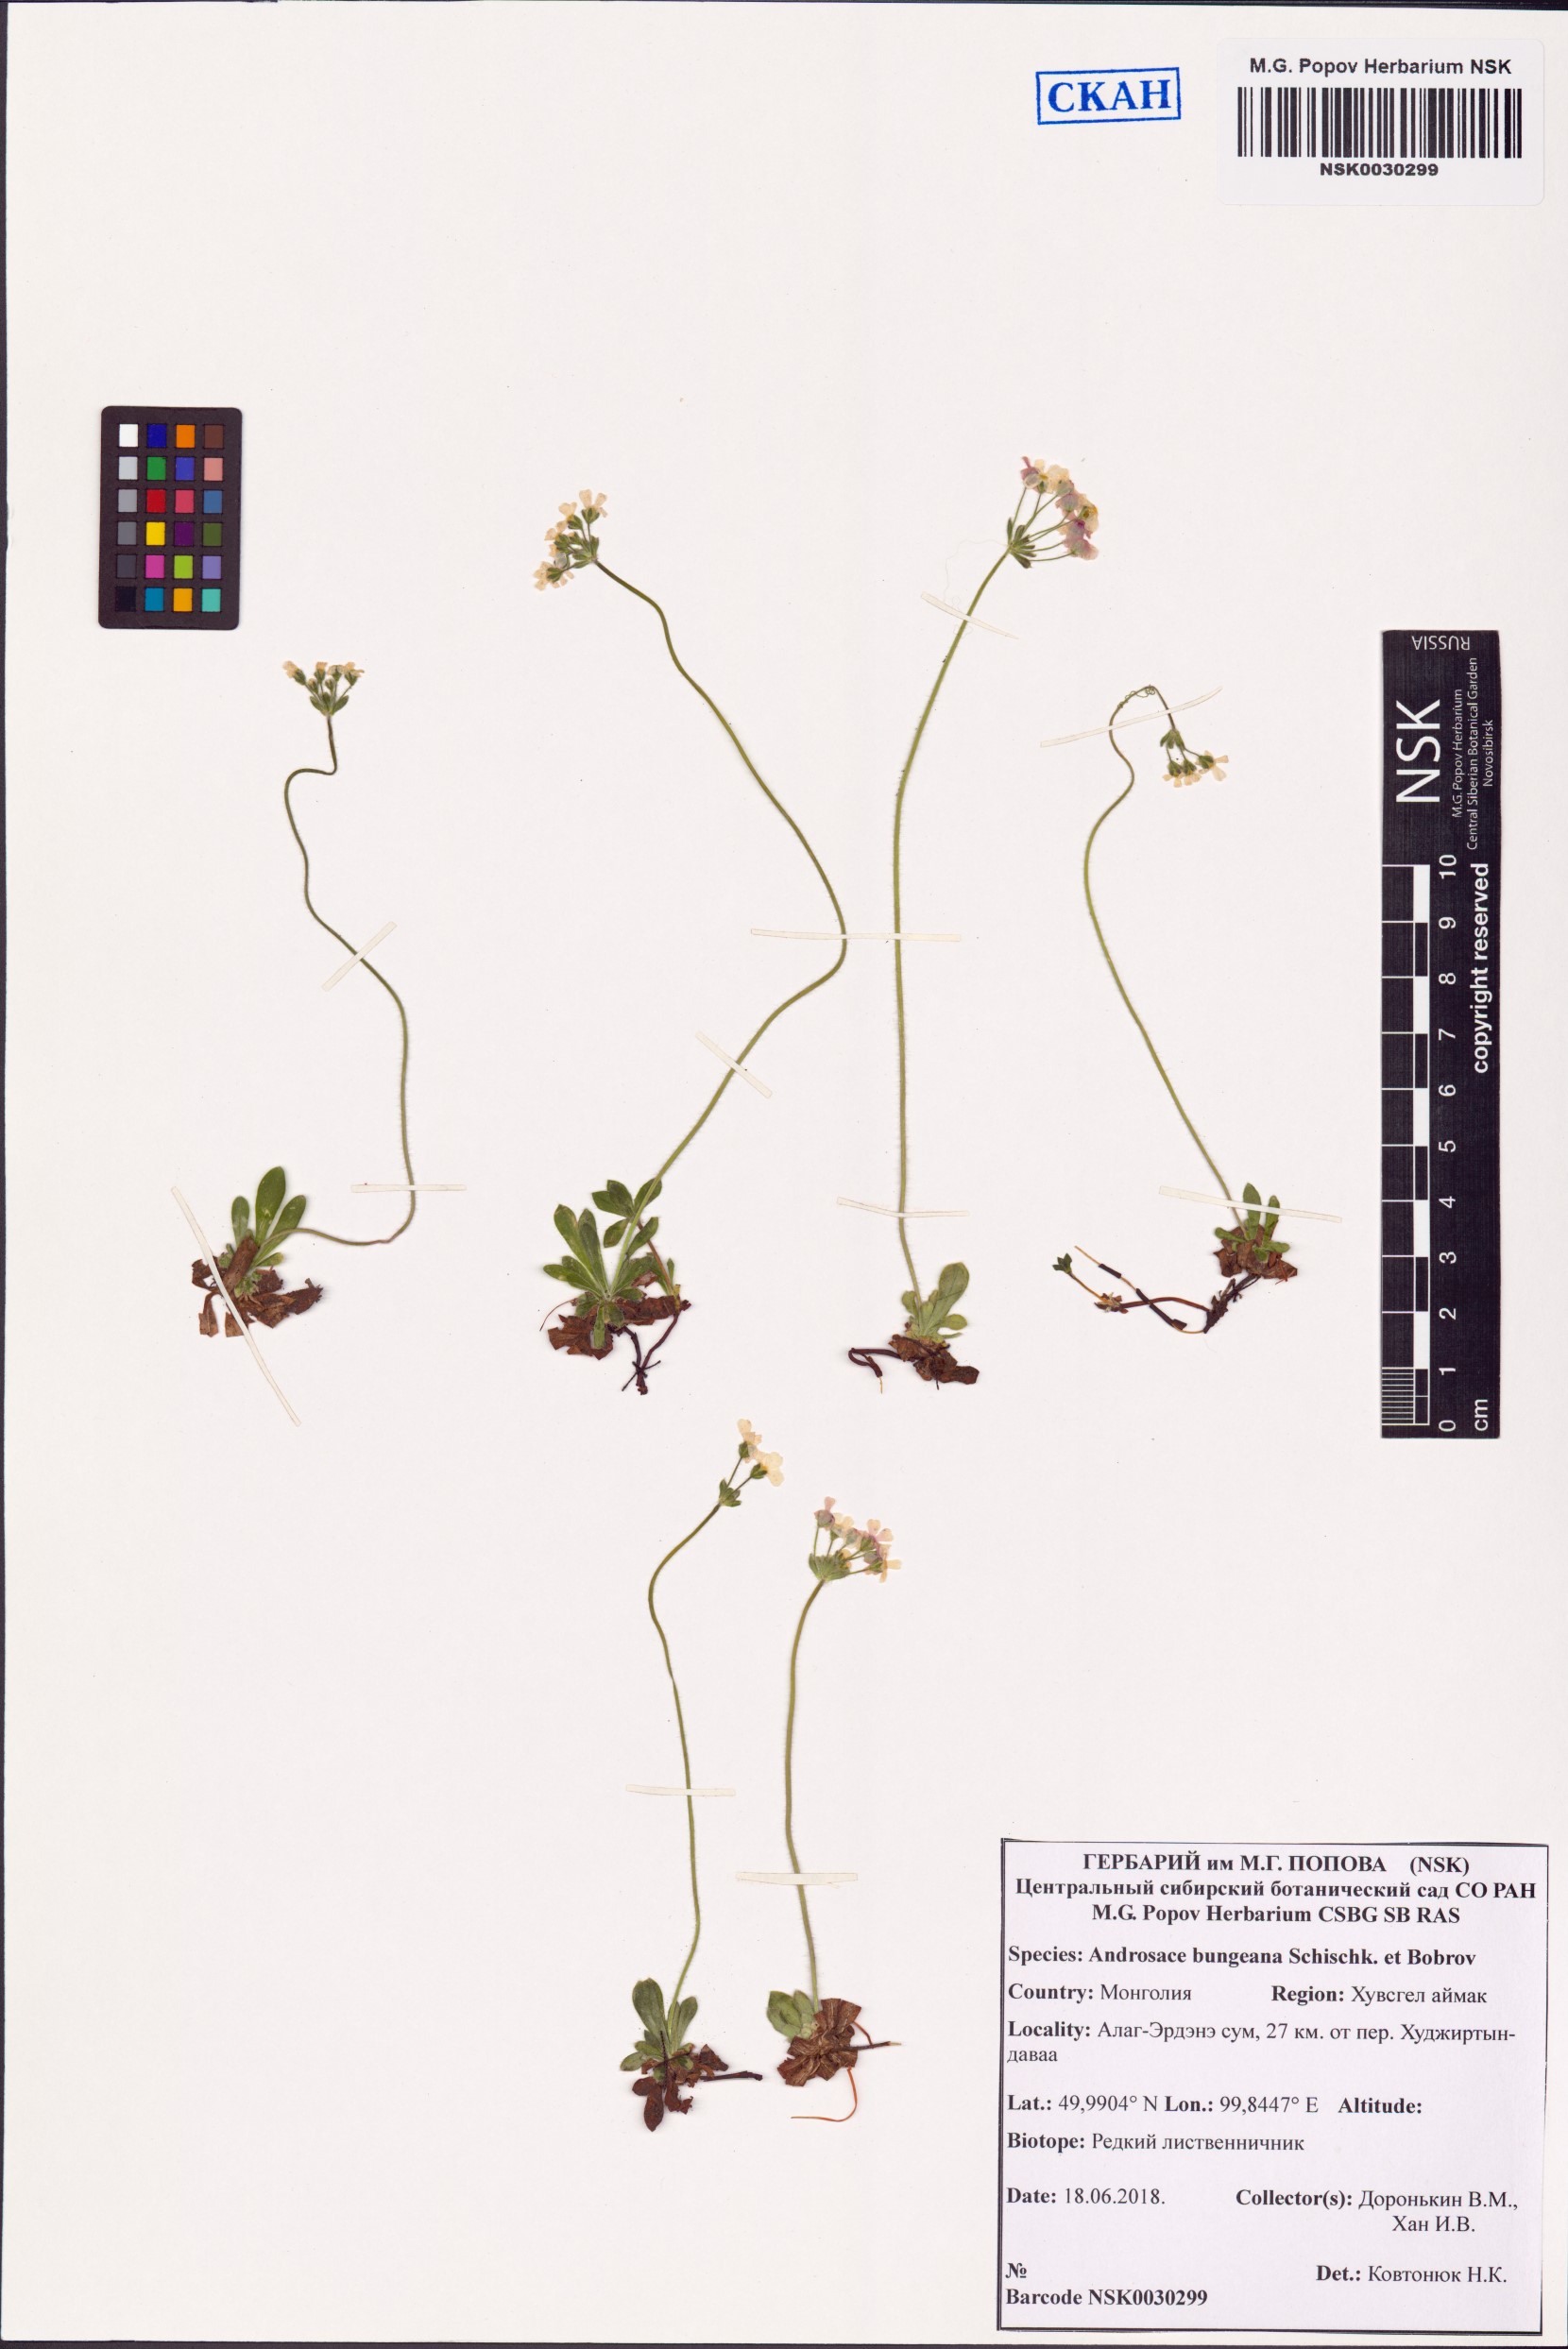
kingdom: Plantae
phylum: Tracheophyta
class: Magnoliopsida
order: Ericales
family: Primulaceae
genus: Androsace
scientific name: Androsace bungeana
